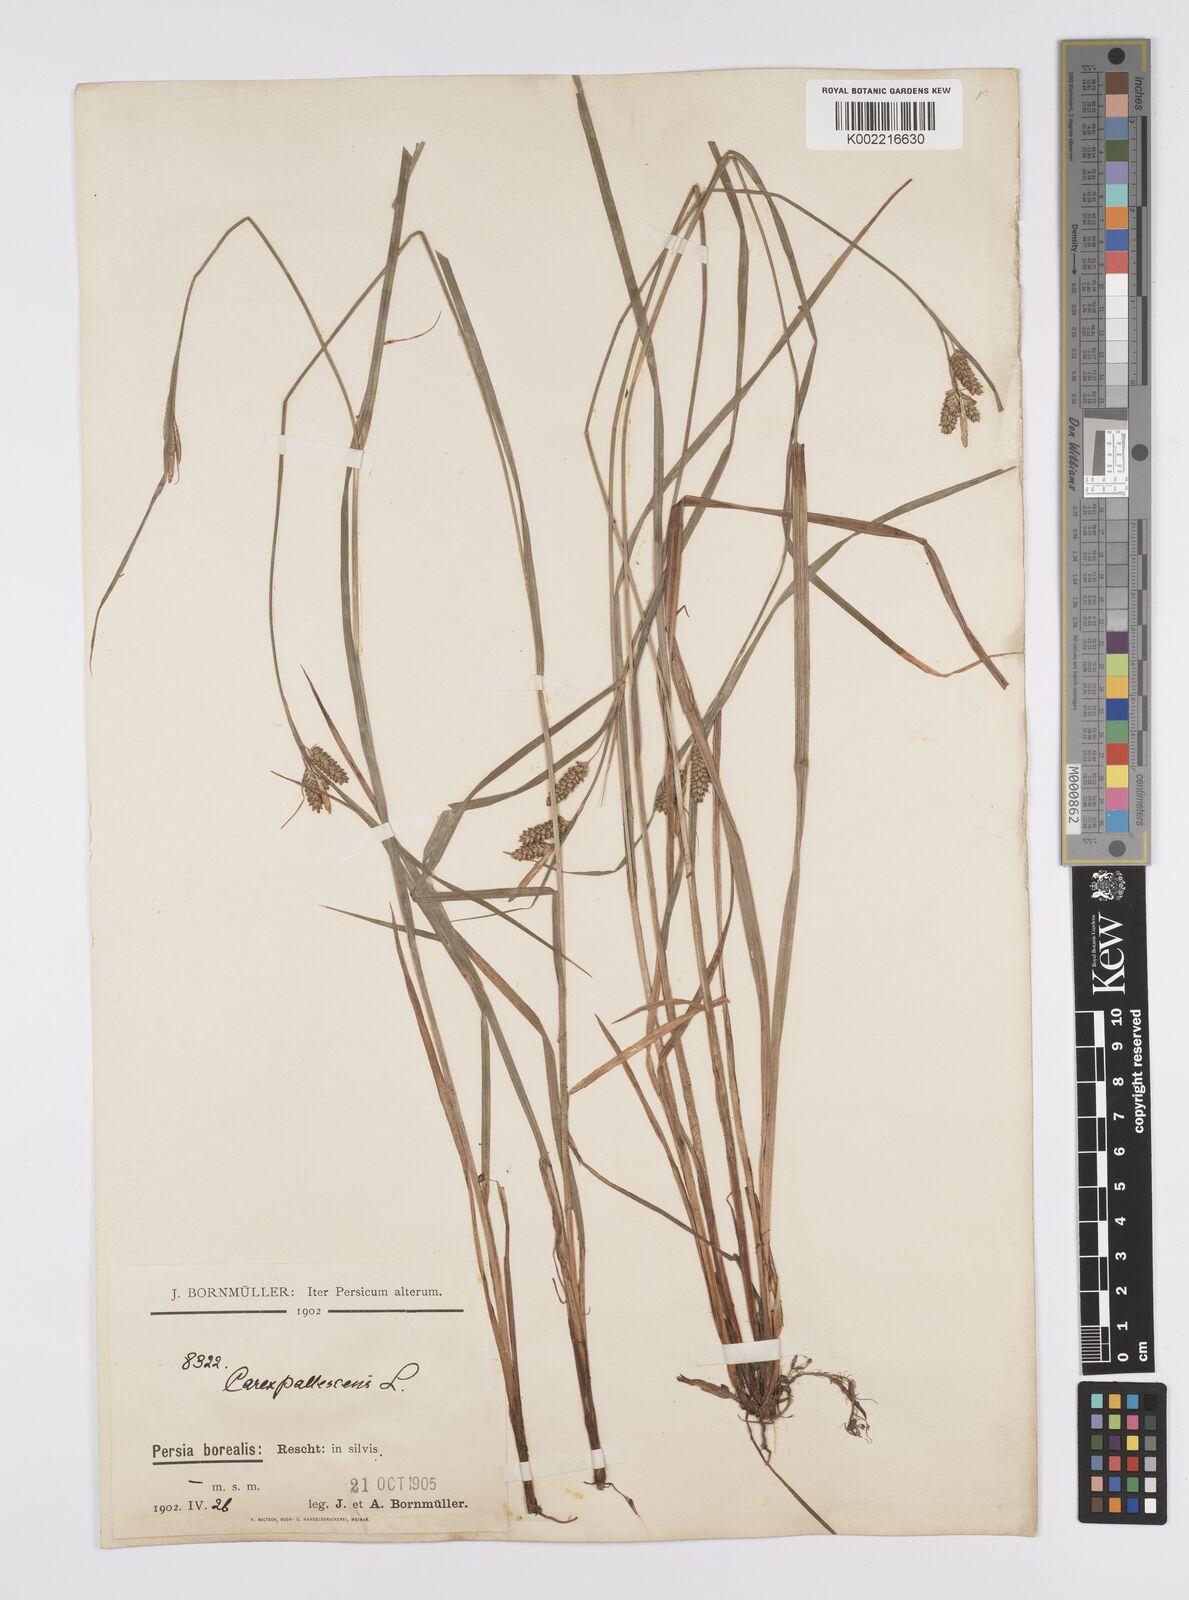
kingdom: Plantae
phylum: Tracheophyta
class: Liliopsida
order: Poales
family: Cyperaceae
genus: Carex
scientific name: Carex pallescens
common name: Pale sedge
